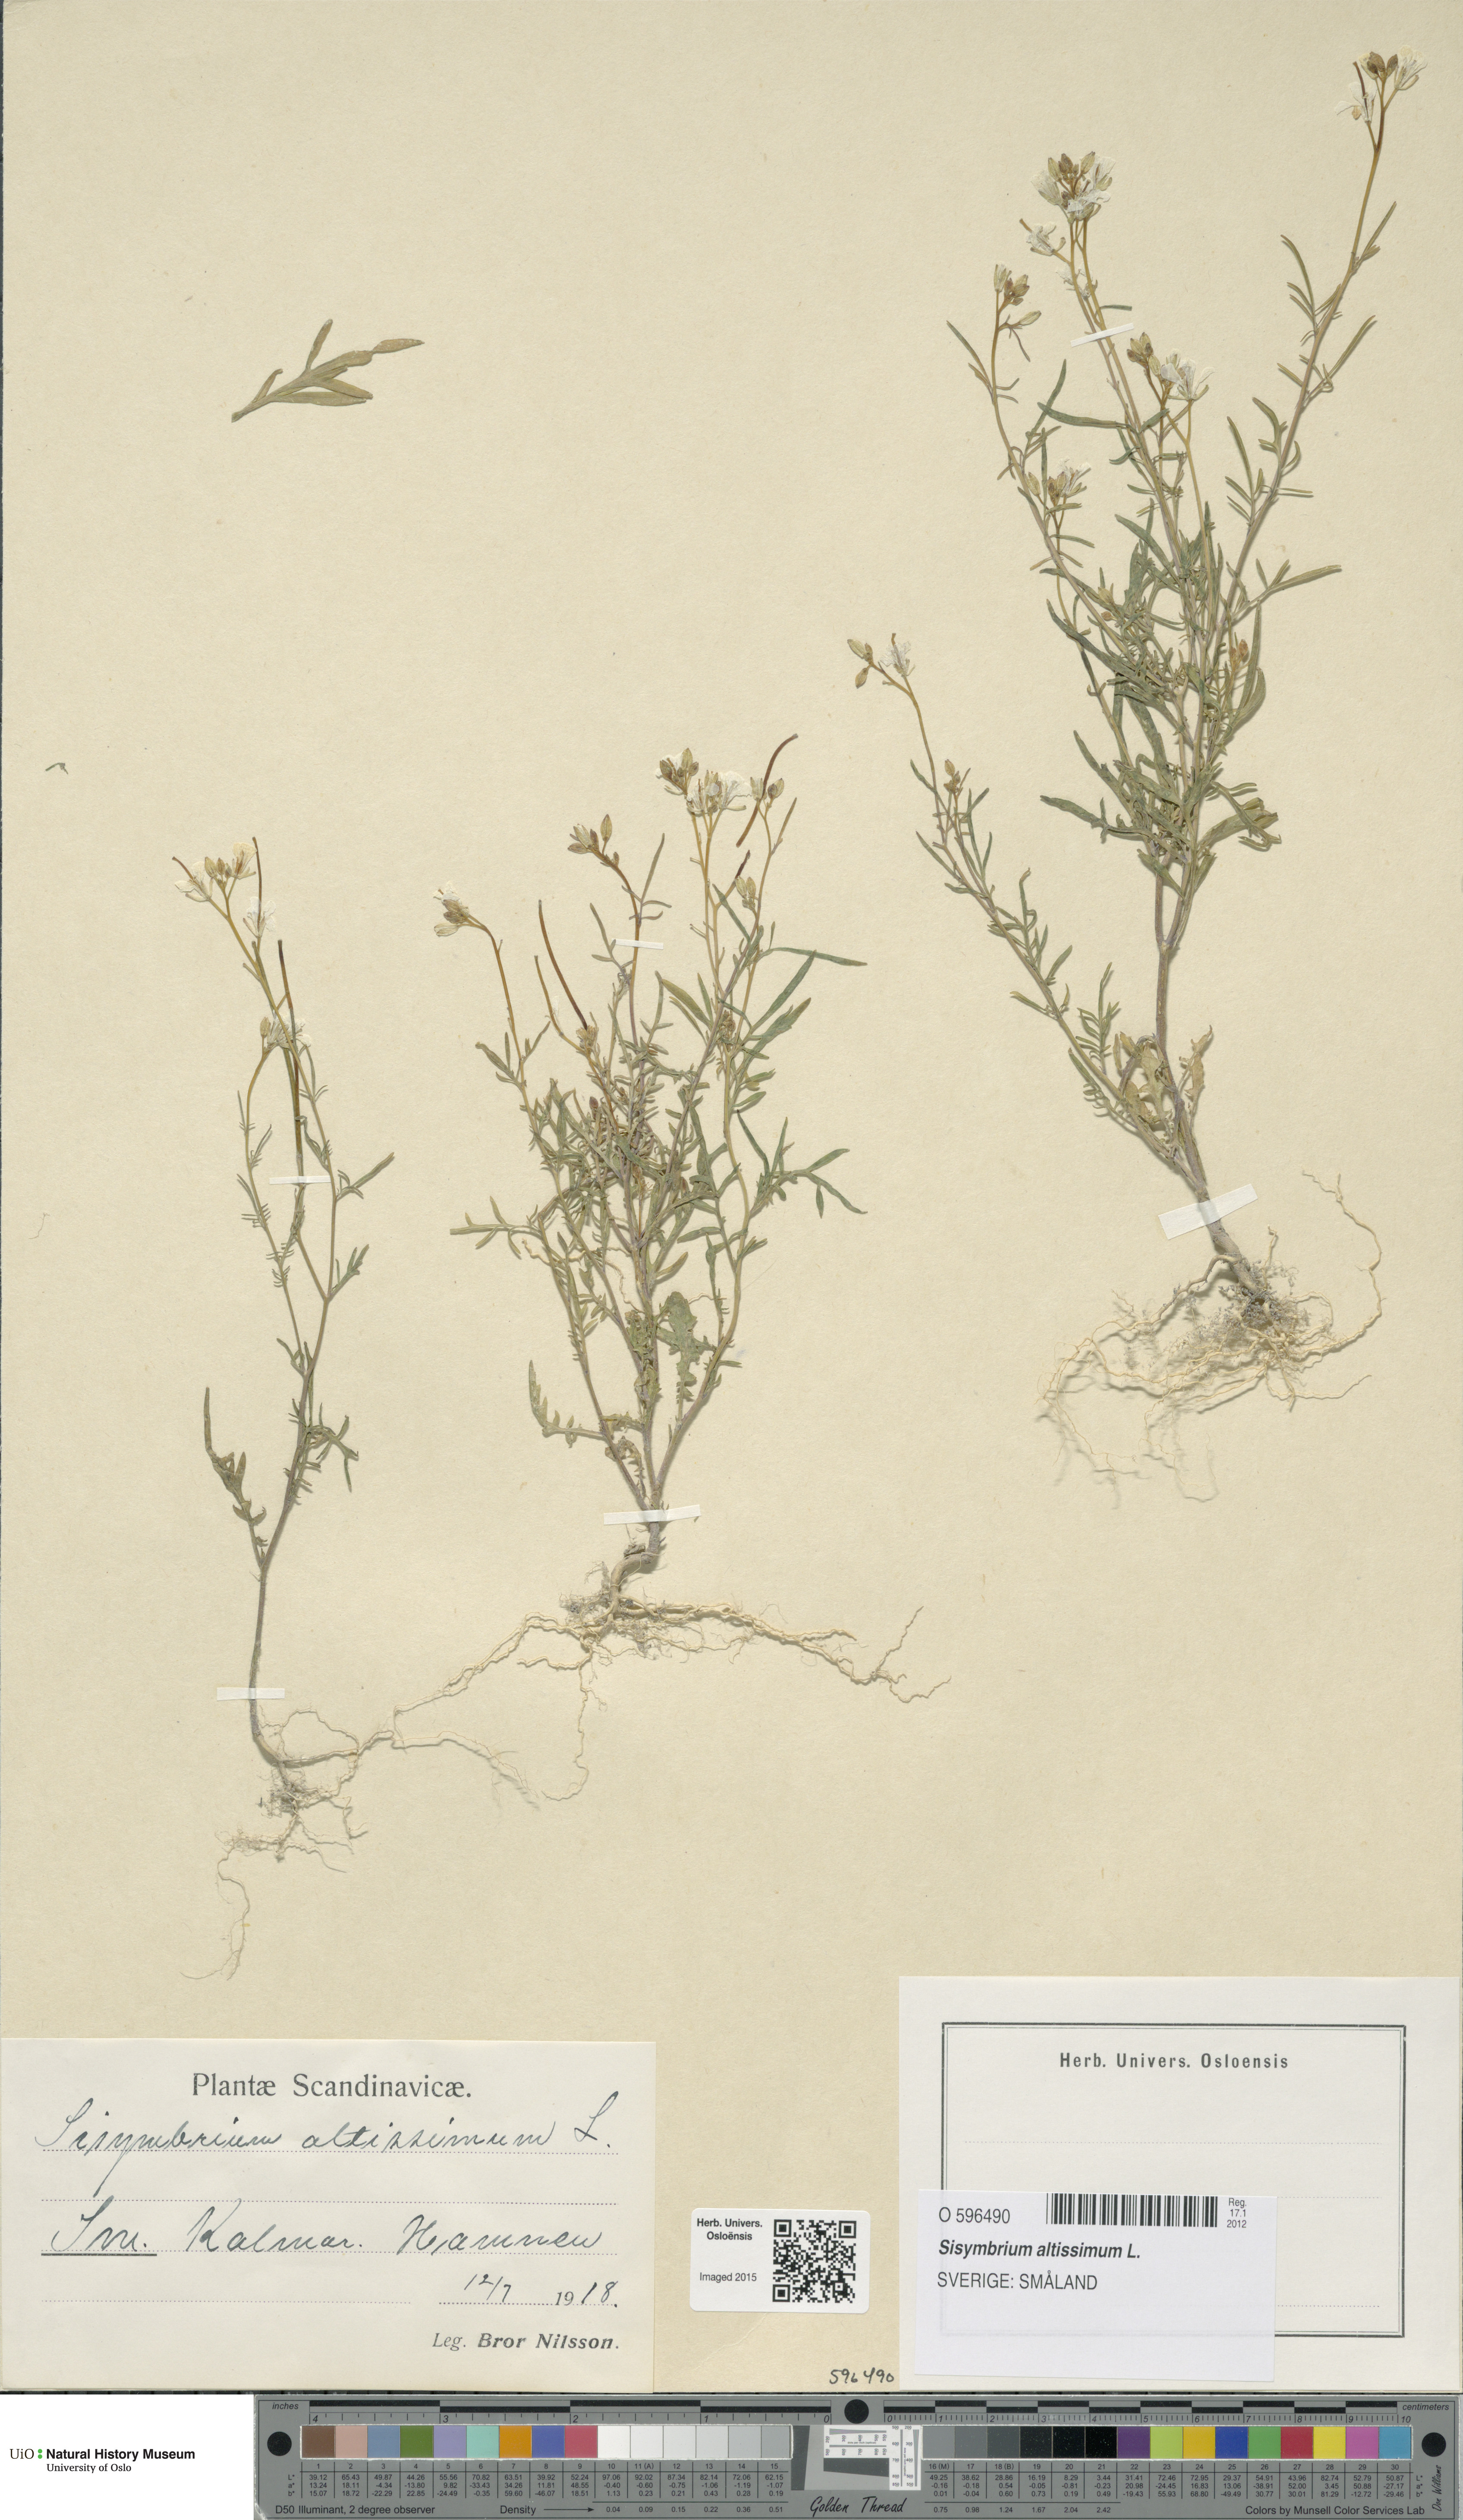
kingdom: Plantae
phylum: Tracheophyta
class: Magnoliopsida
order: Brassicales
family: Brassicaceae
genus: Sisymbrium
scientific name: Sisymbrium altissimum
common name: Tall rocket
